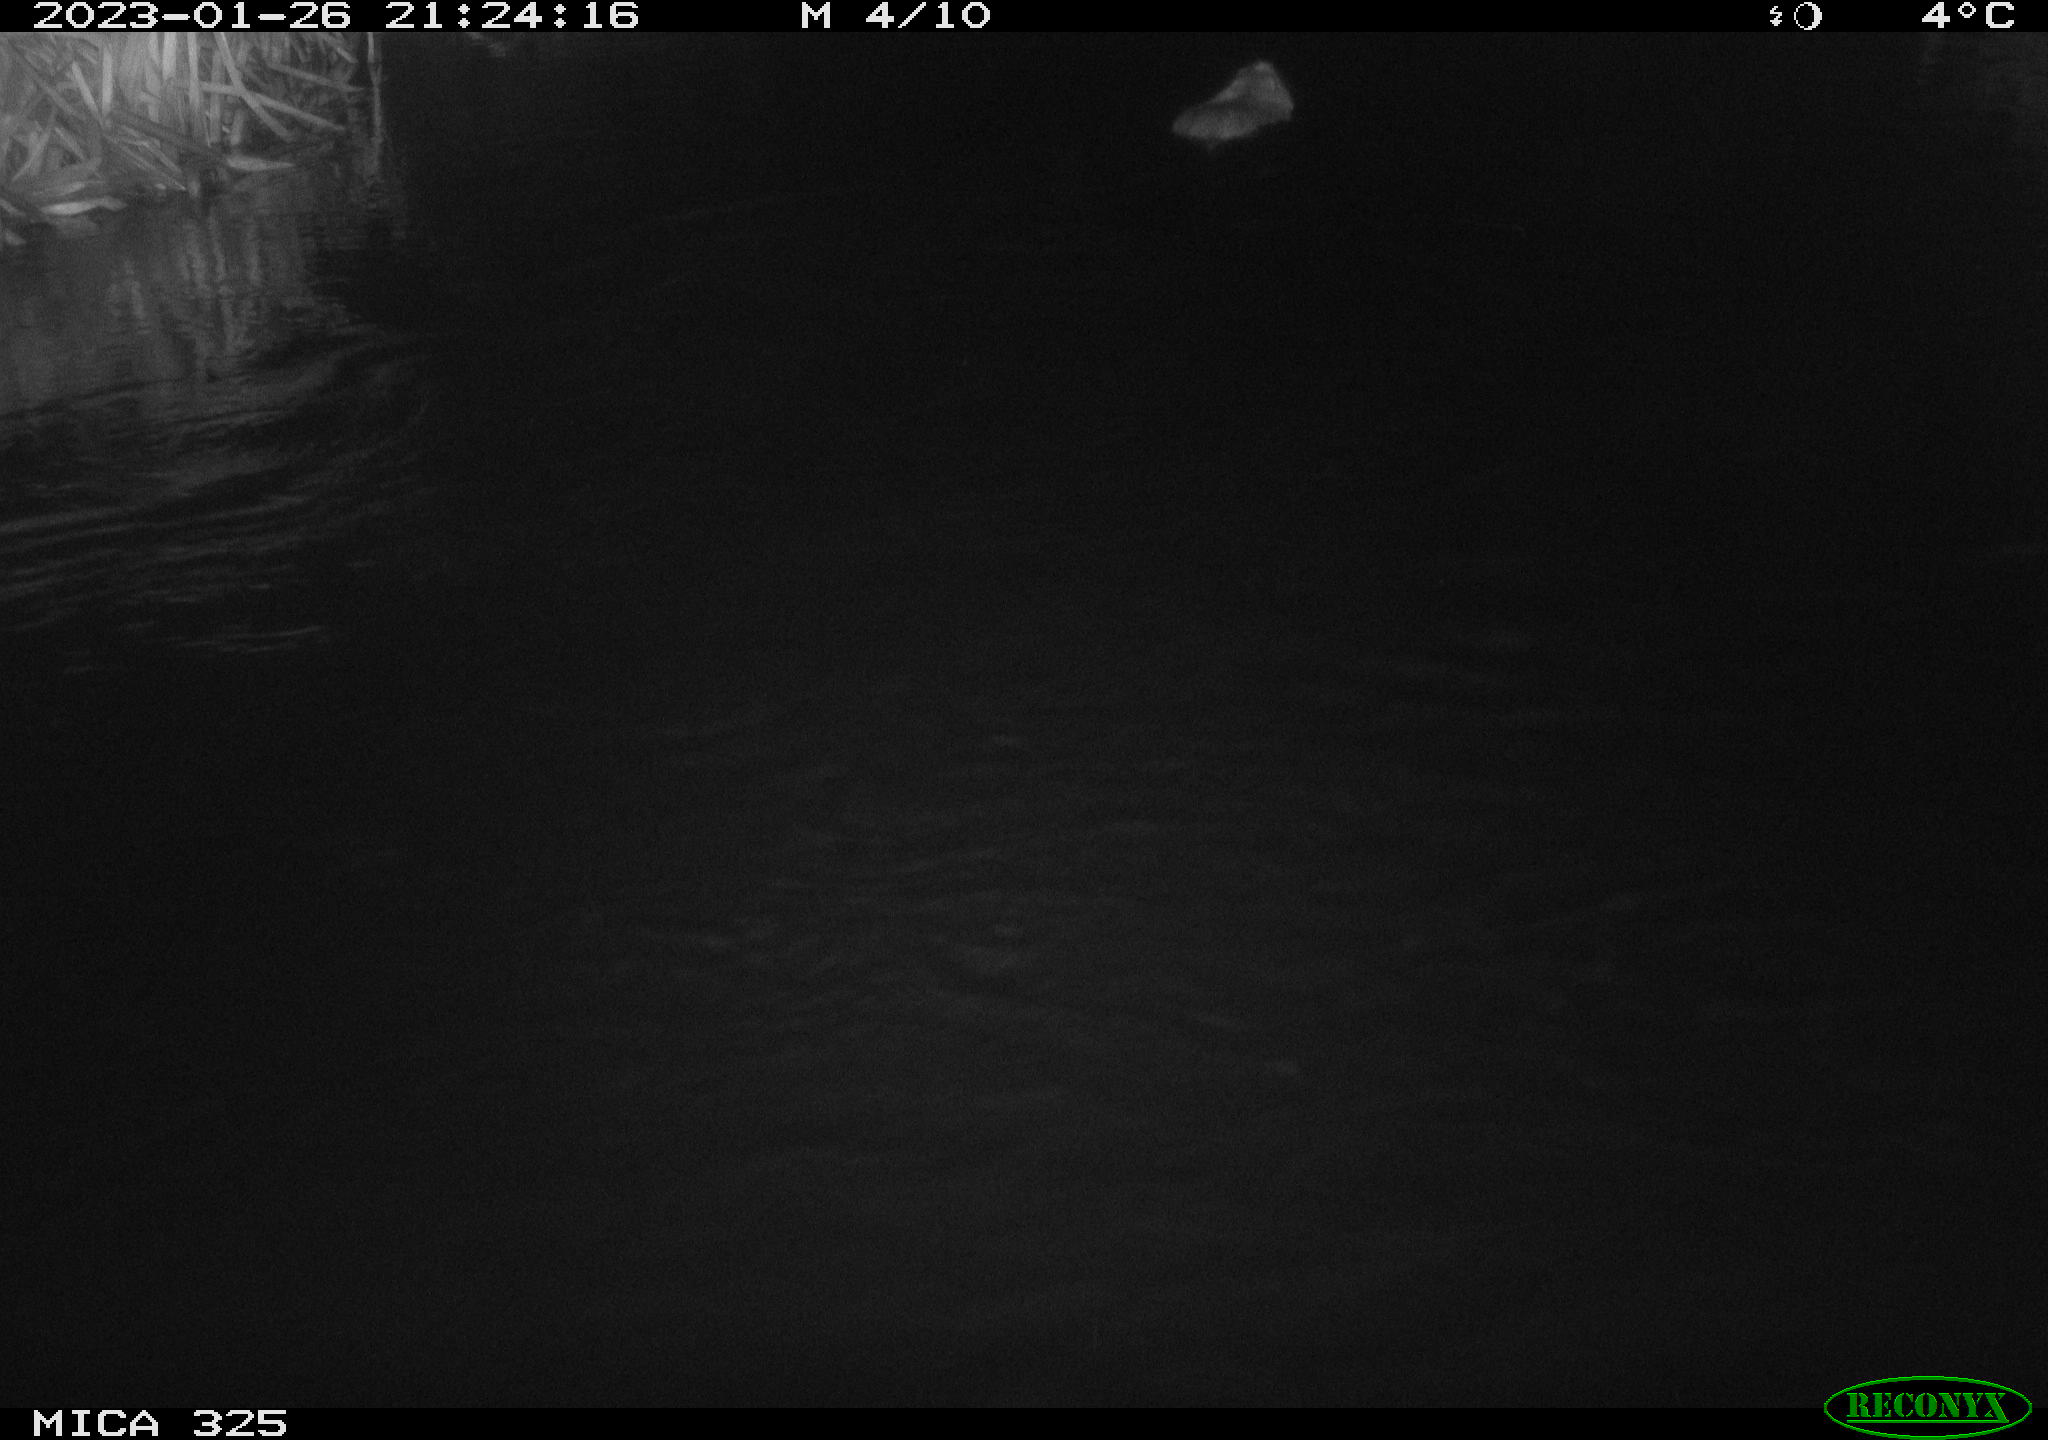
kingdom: Animalia
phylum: Chordata
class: Mammalia
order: Rodentia
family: Myocastoridae
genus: Myocastor
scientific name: Myocastor coypus
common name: Coypu
